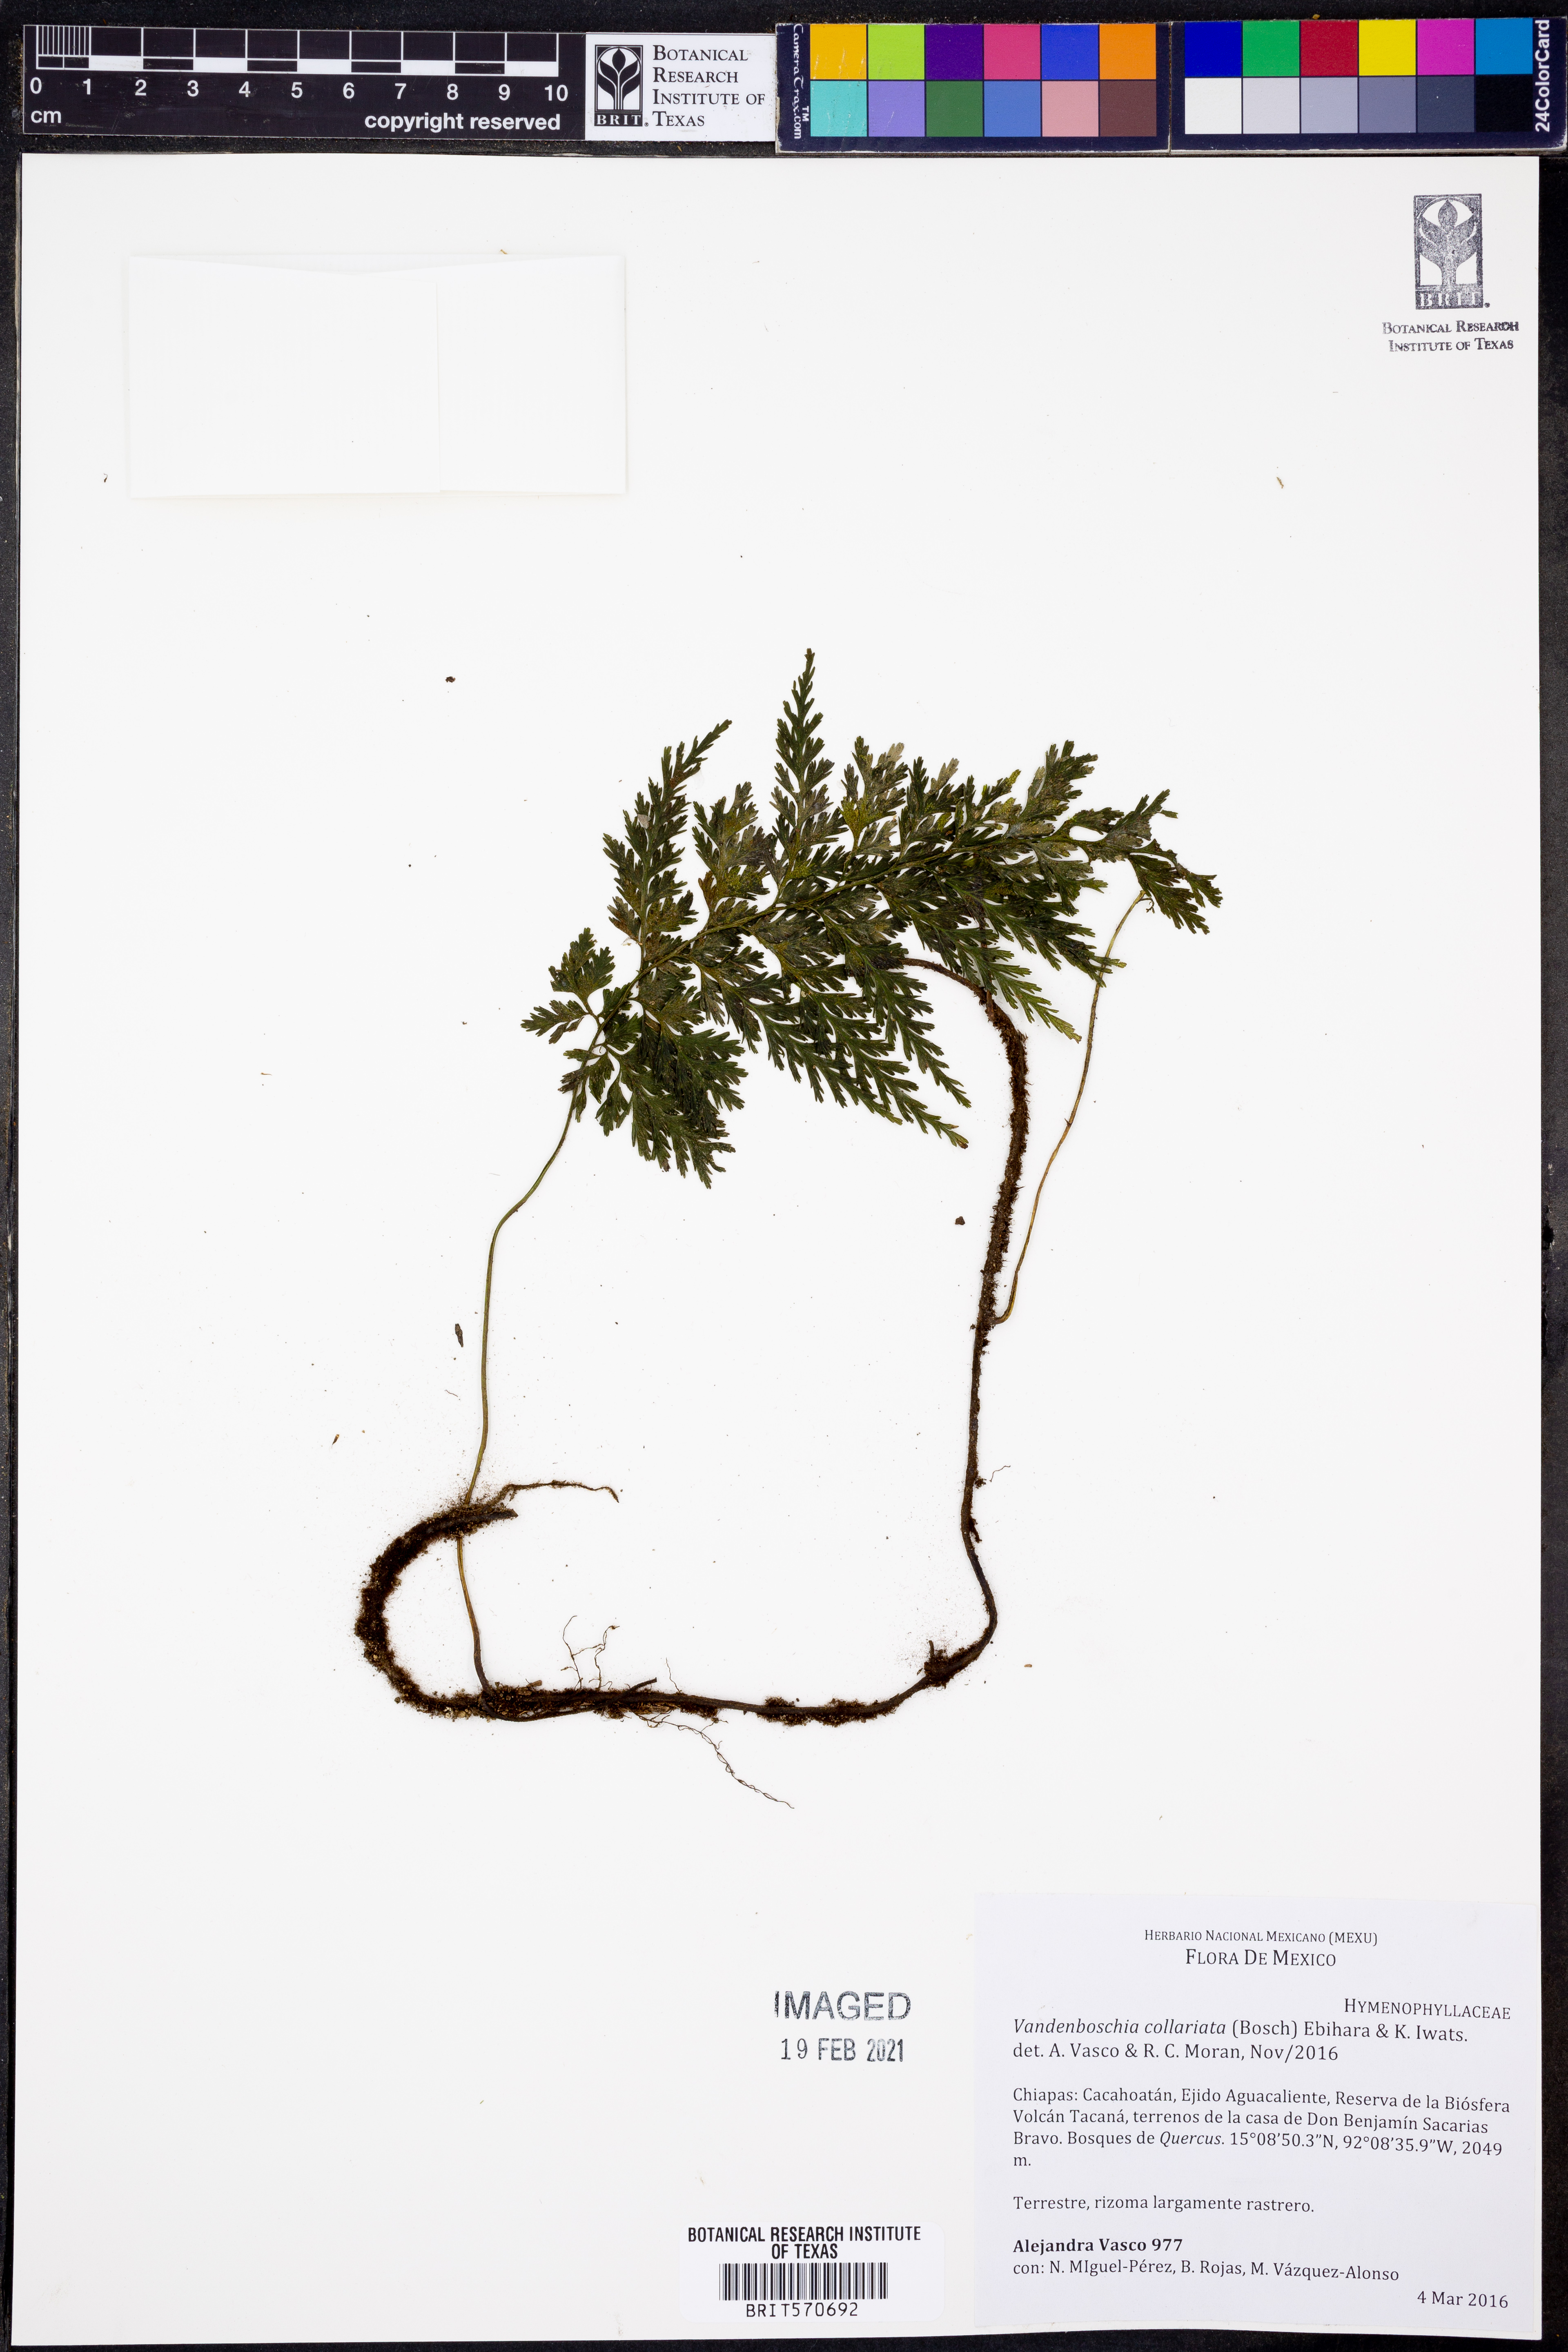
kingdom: Plantae
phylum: Tracheophyta
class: Polypodiopsida
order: Hymenophyllales
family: Hymenophyllaceae
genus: Vandenboschia
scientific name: Vandenboschia collariata
